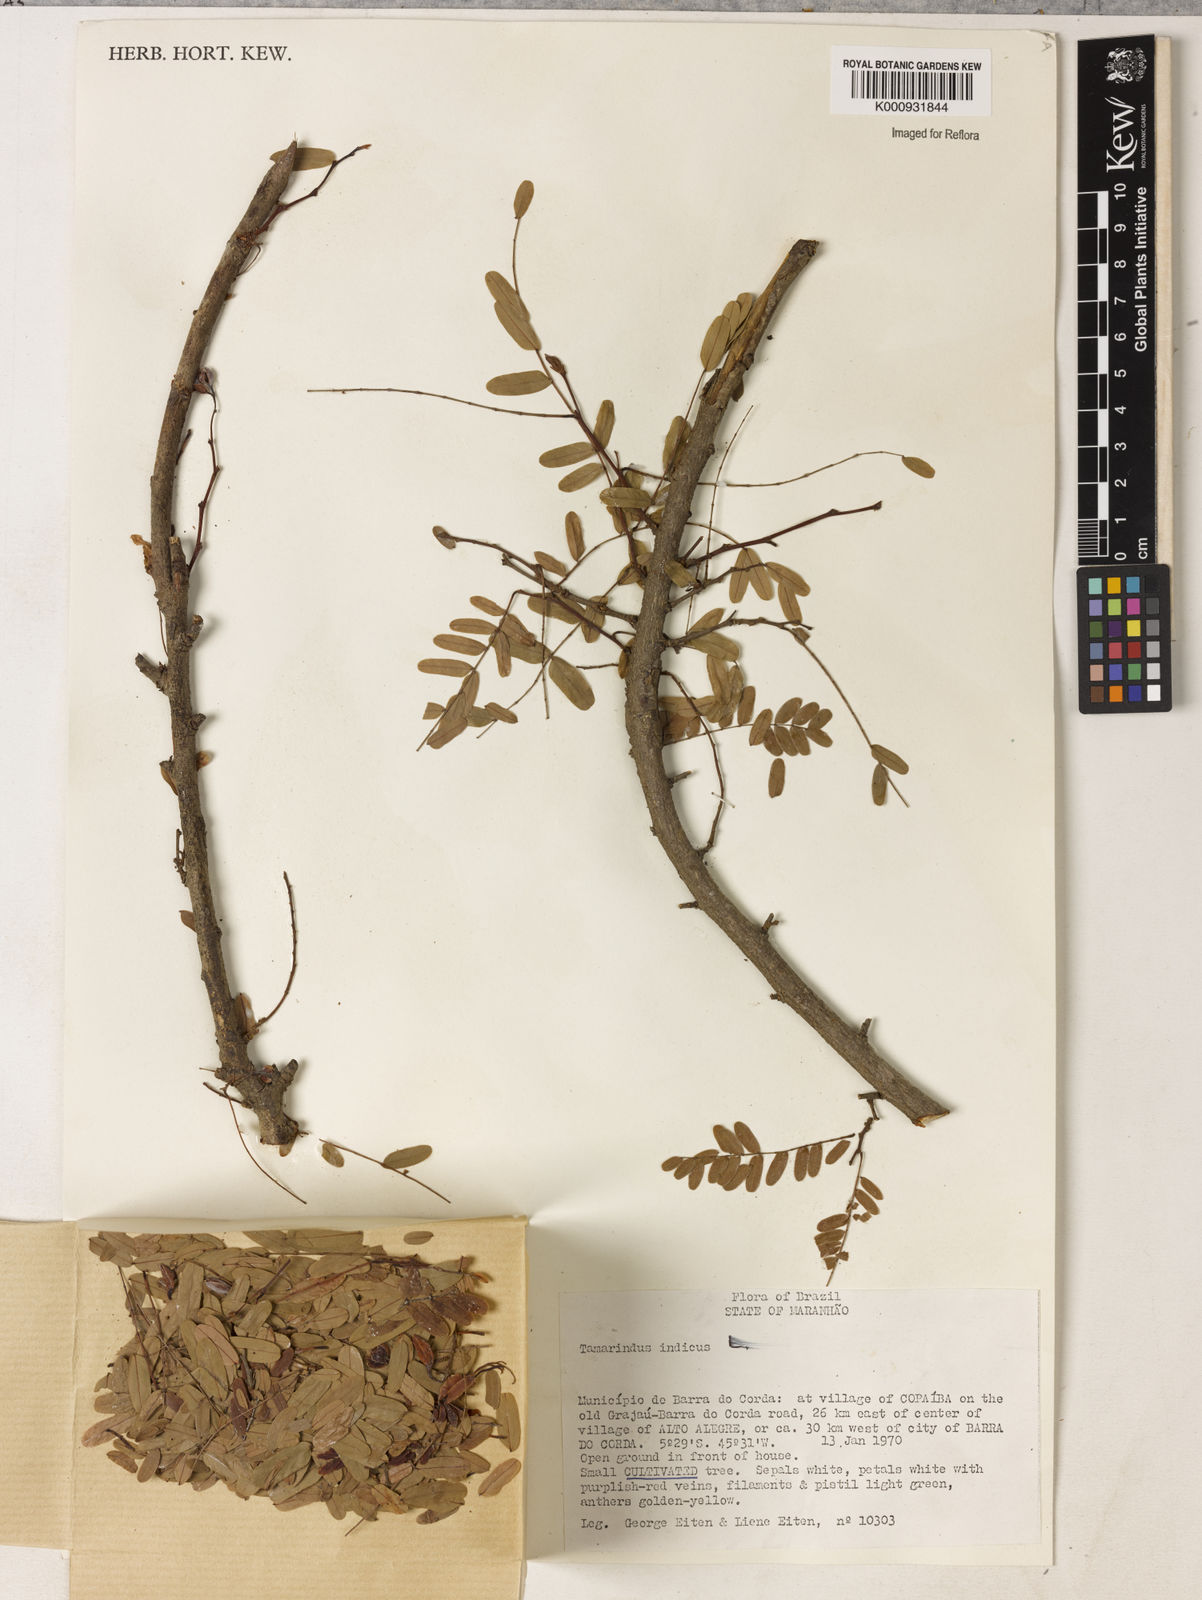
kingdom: Plantae
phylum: Tracheophyta
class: Magnoliopsida
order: Fabales
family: Fabaceae
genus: Tamarindus
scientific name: Tamarindus indica
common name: Tamarind
